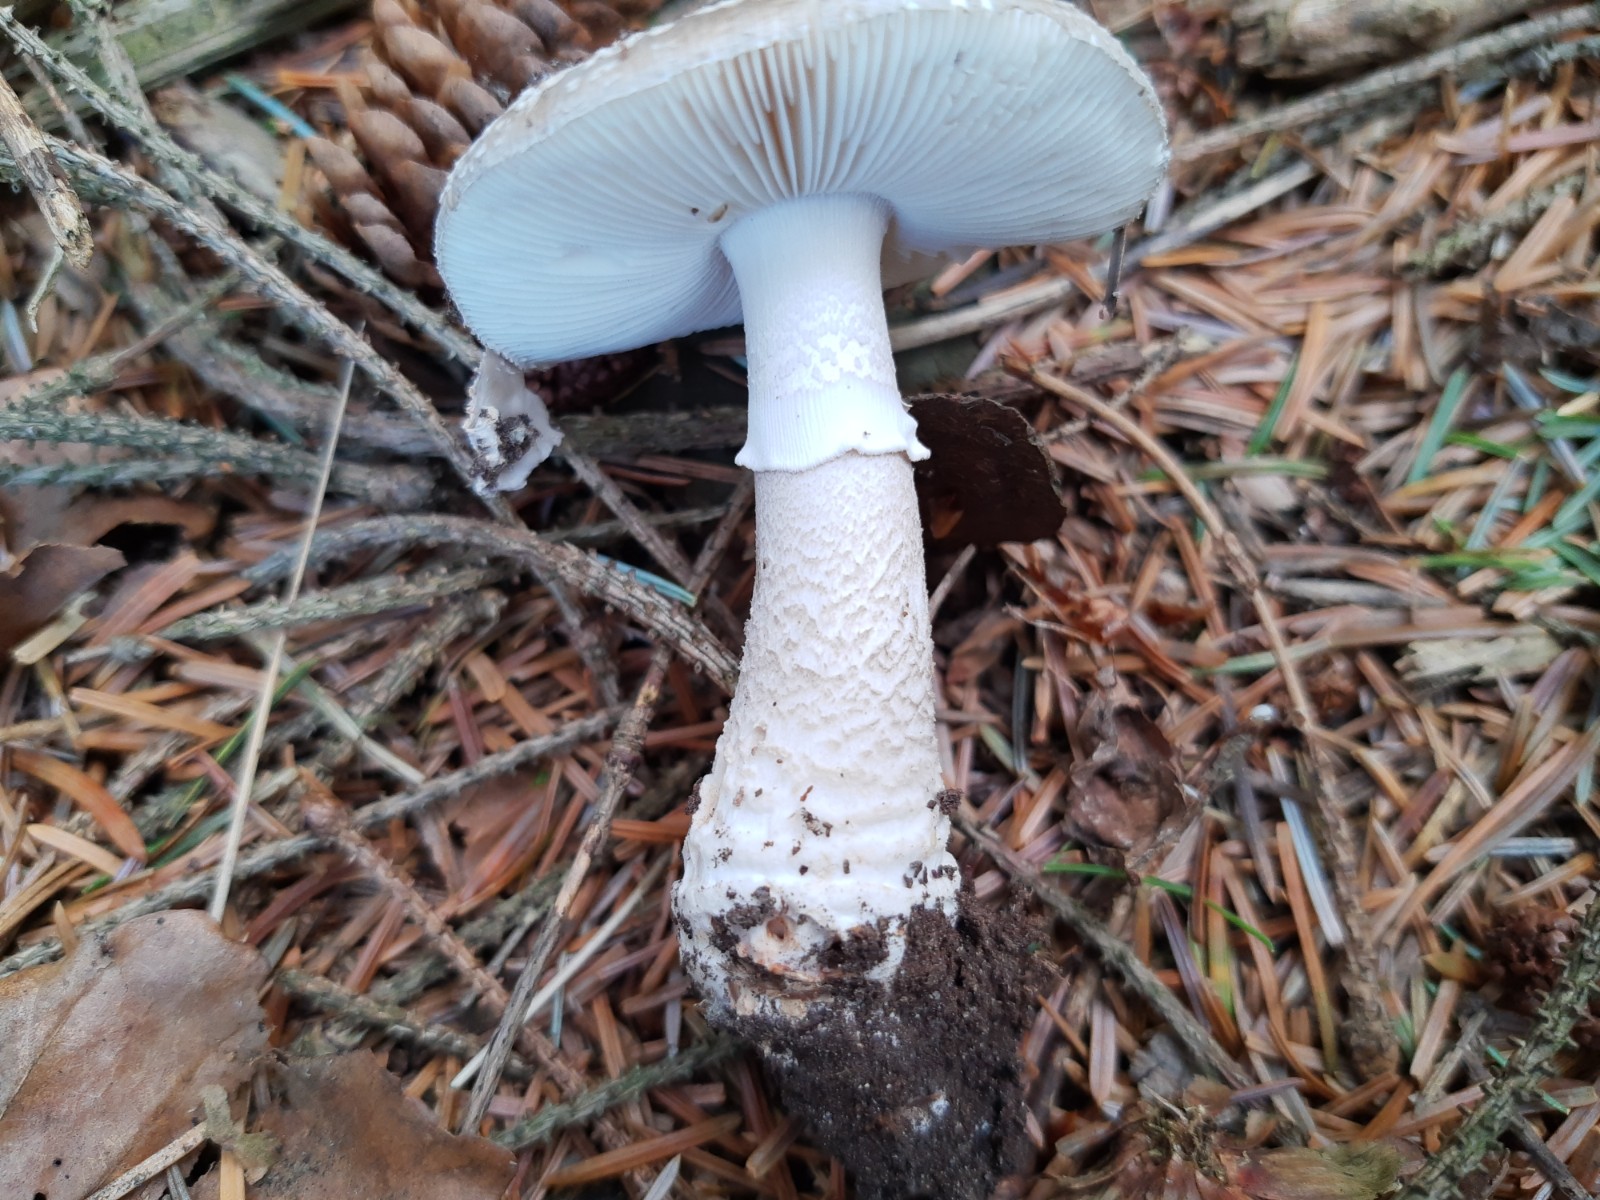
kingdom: Fungi
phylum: Basidiomycota
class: Agaricomycetes
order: Agaricales
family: Amanitaceae
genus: Amanita
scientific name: Amanita
